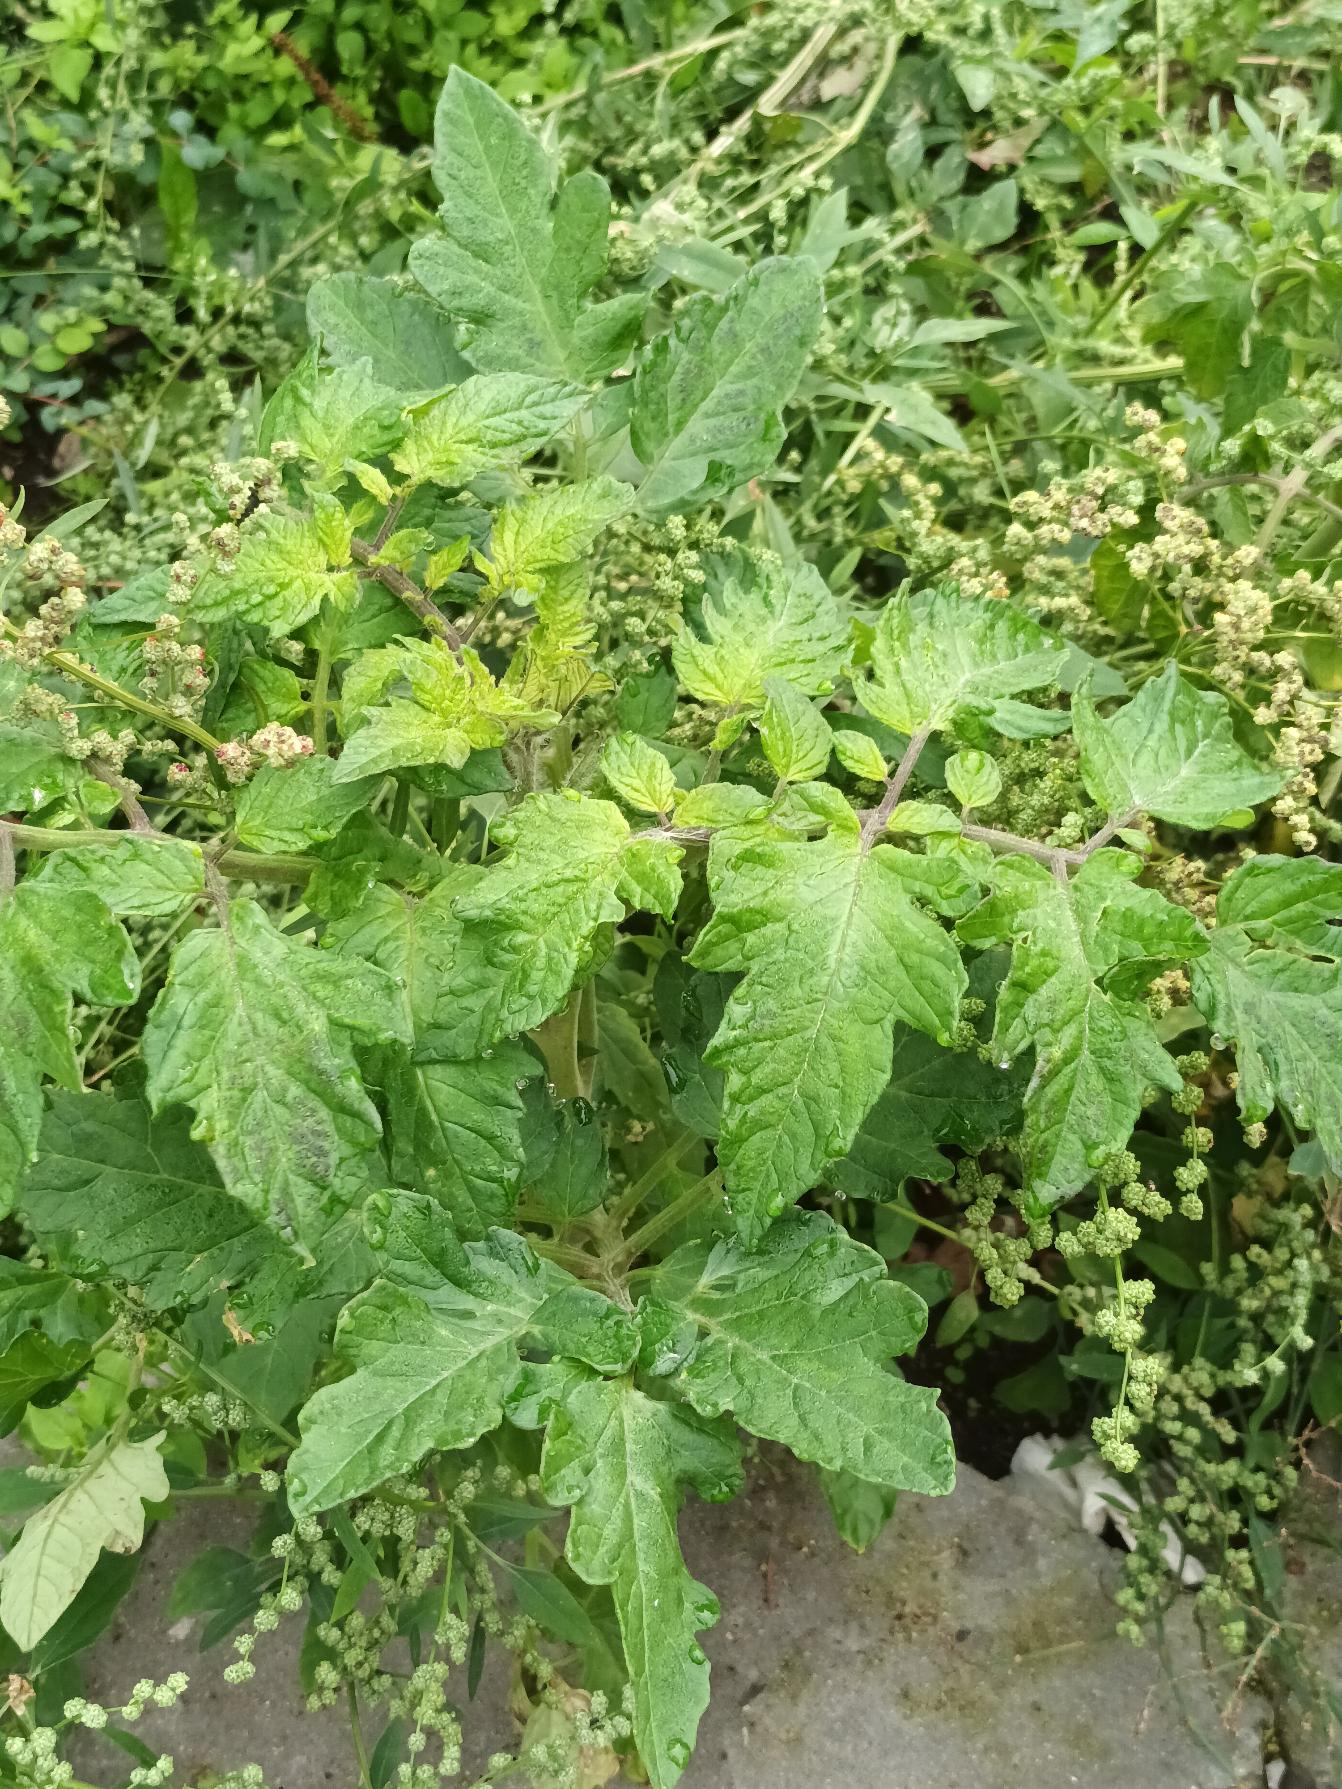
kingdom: Plantae
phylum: Tracheophyta
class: Magnoliopsida
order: Solanales
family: Solanaceae
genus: Solanum
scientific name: Solanum lycopersicum
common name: Tomat
